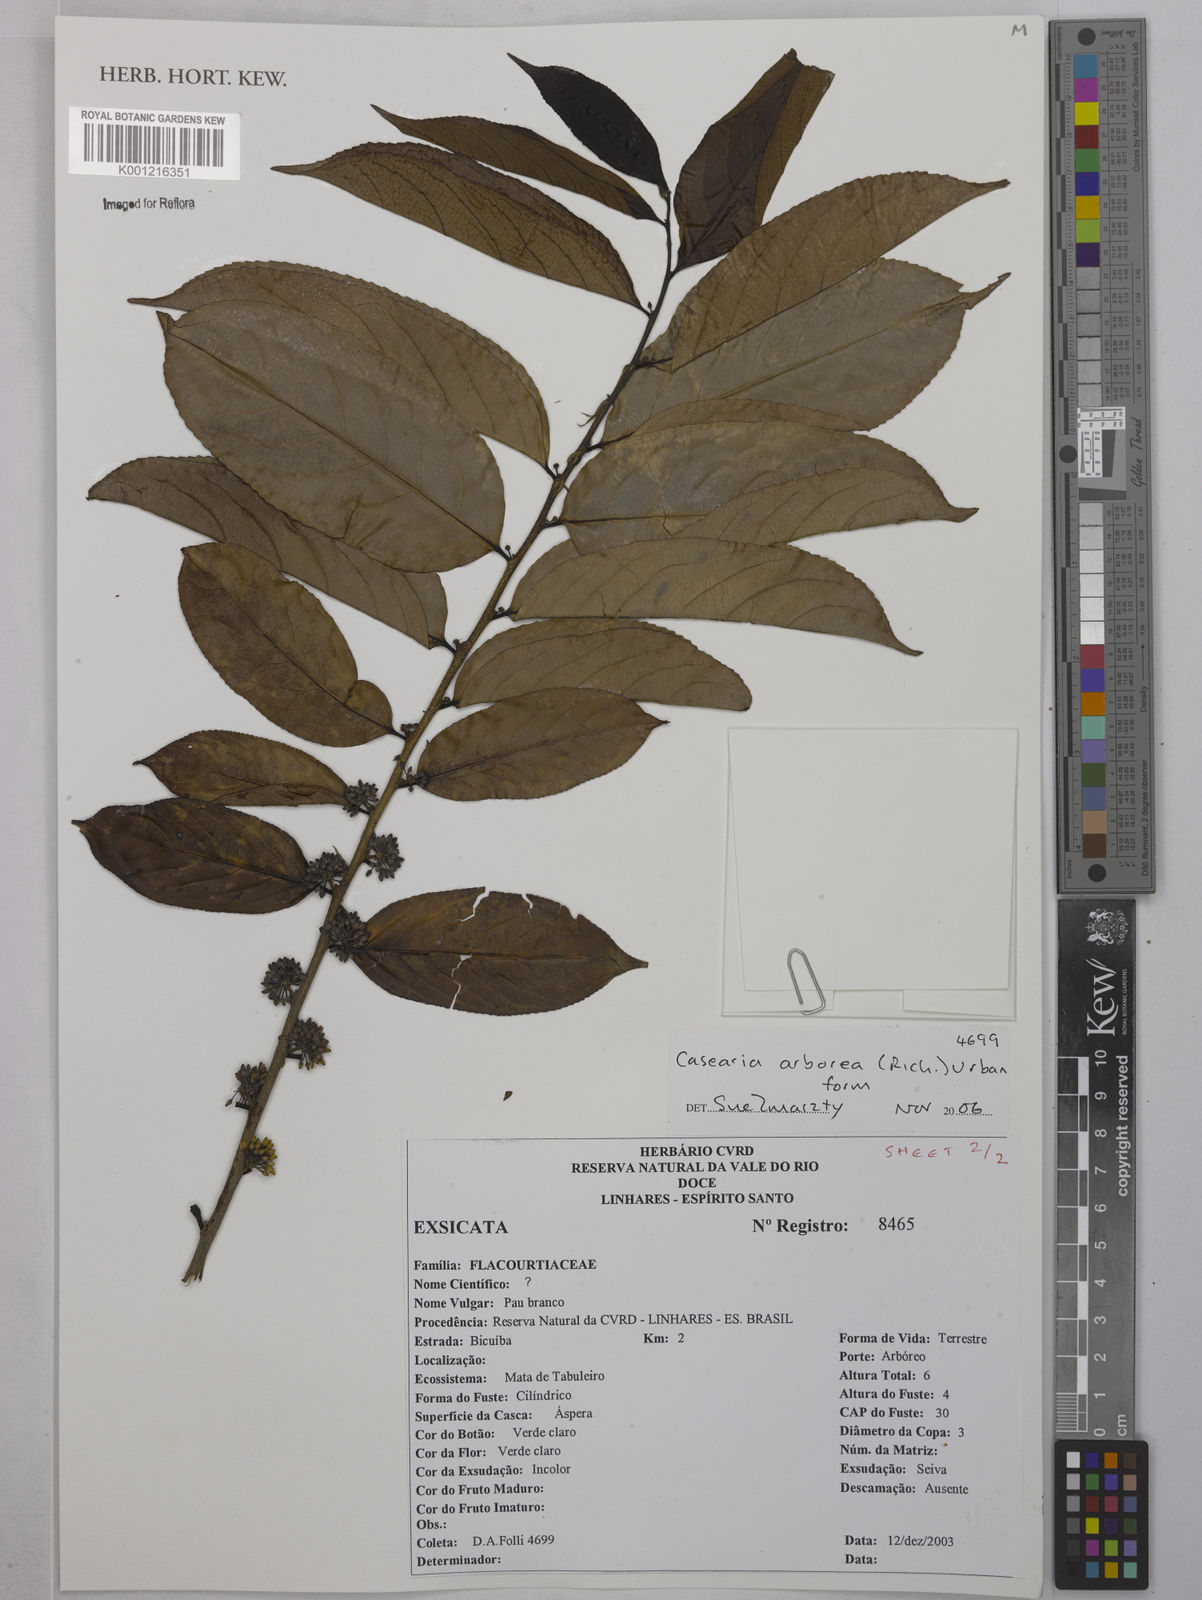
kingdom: Plantae
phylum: Tracheophyta
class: Magnoliopsida
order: Malpighiales
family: Salicaceae
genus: Casearia
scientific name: Casearia arborea
